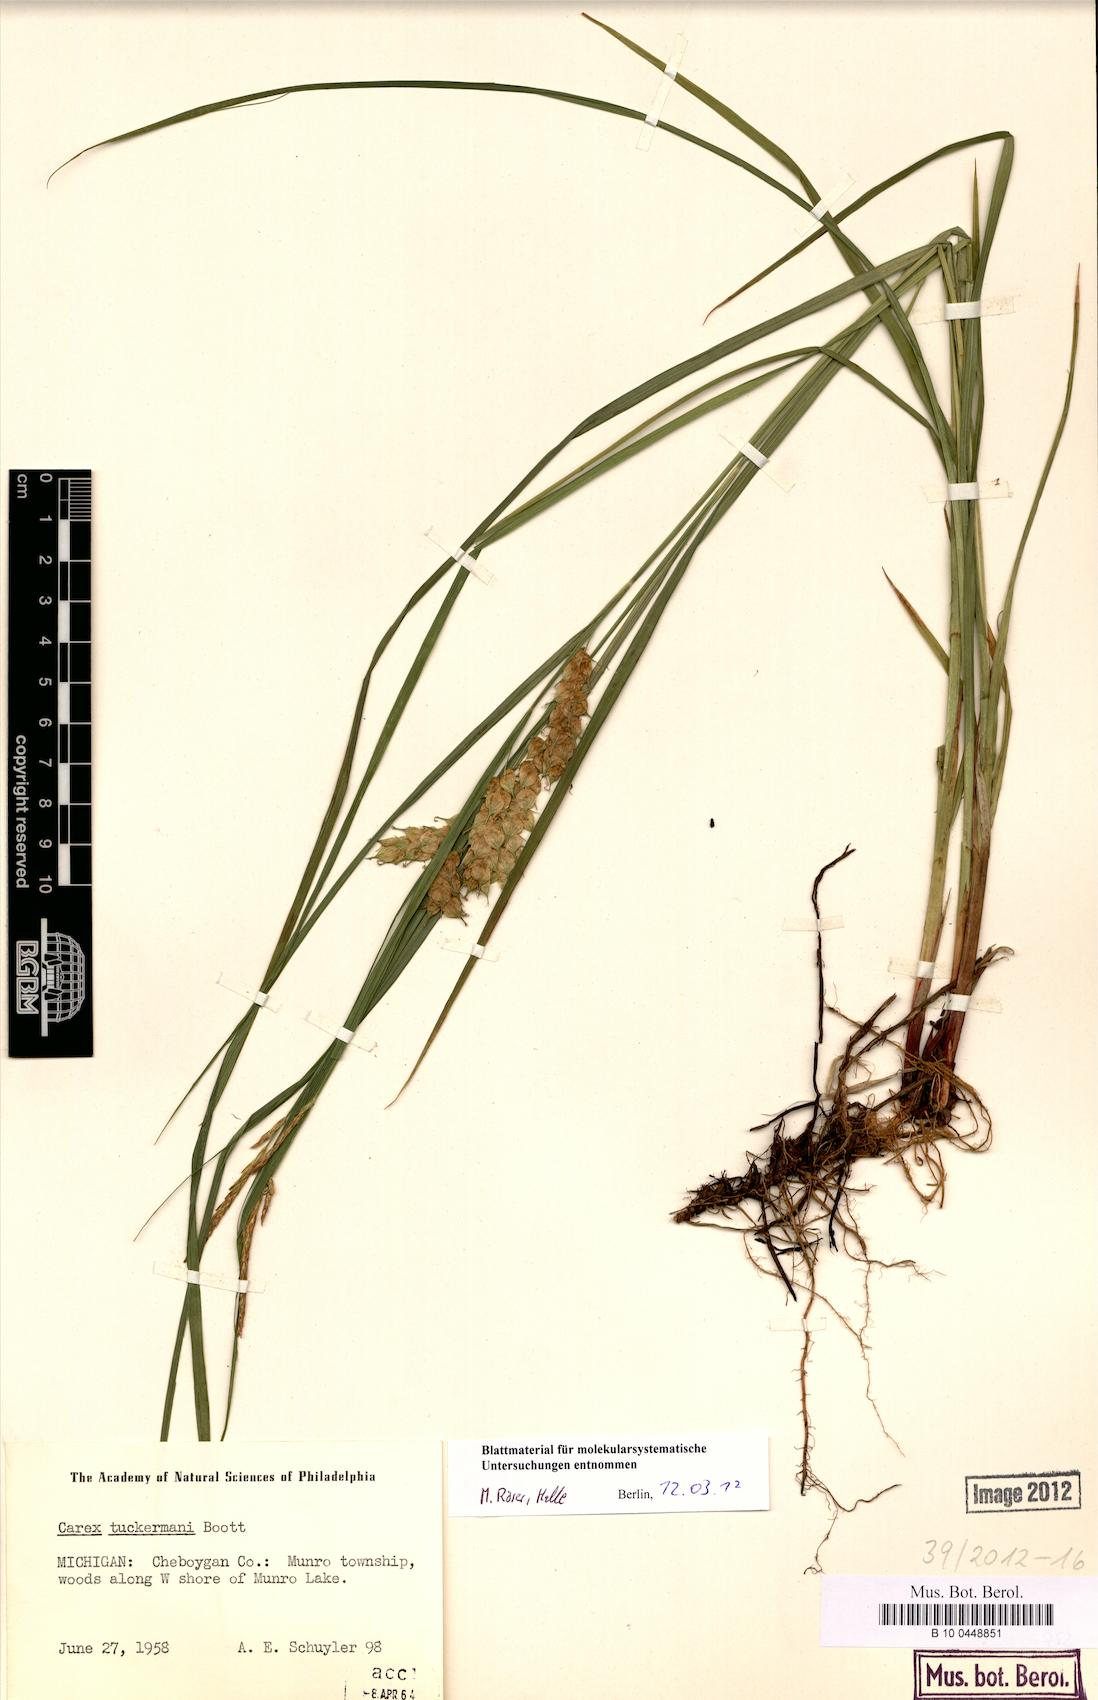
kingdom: Plantae
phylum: Tracheophyta
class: Liliopsida
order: Poales
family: Cyperaceae
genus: Carex
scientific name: Carex tuckermanii
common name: Tuckerman's sedge
